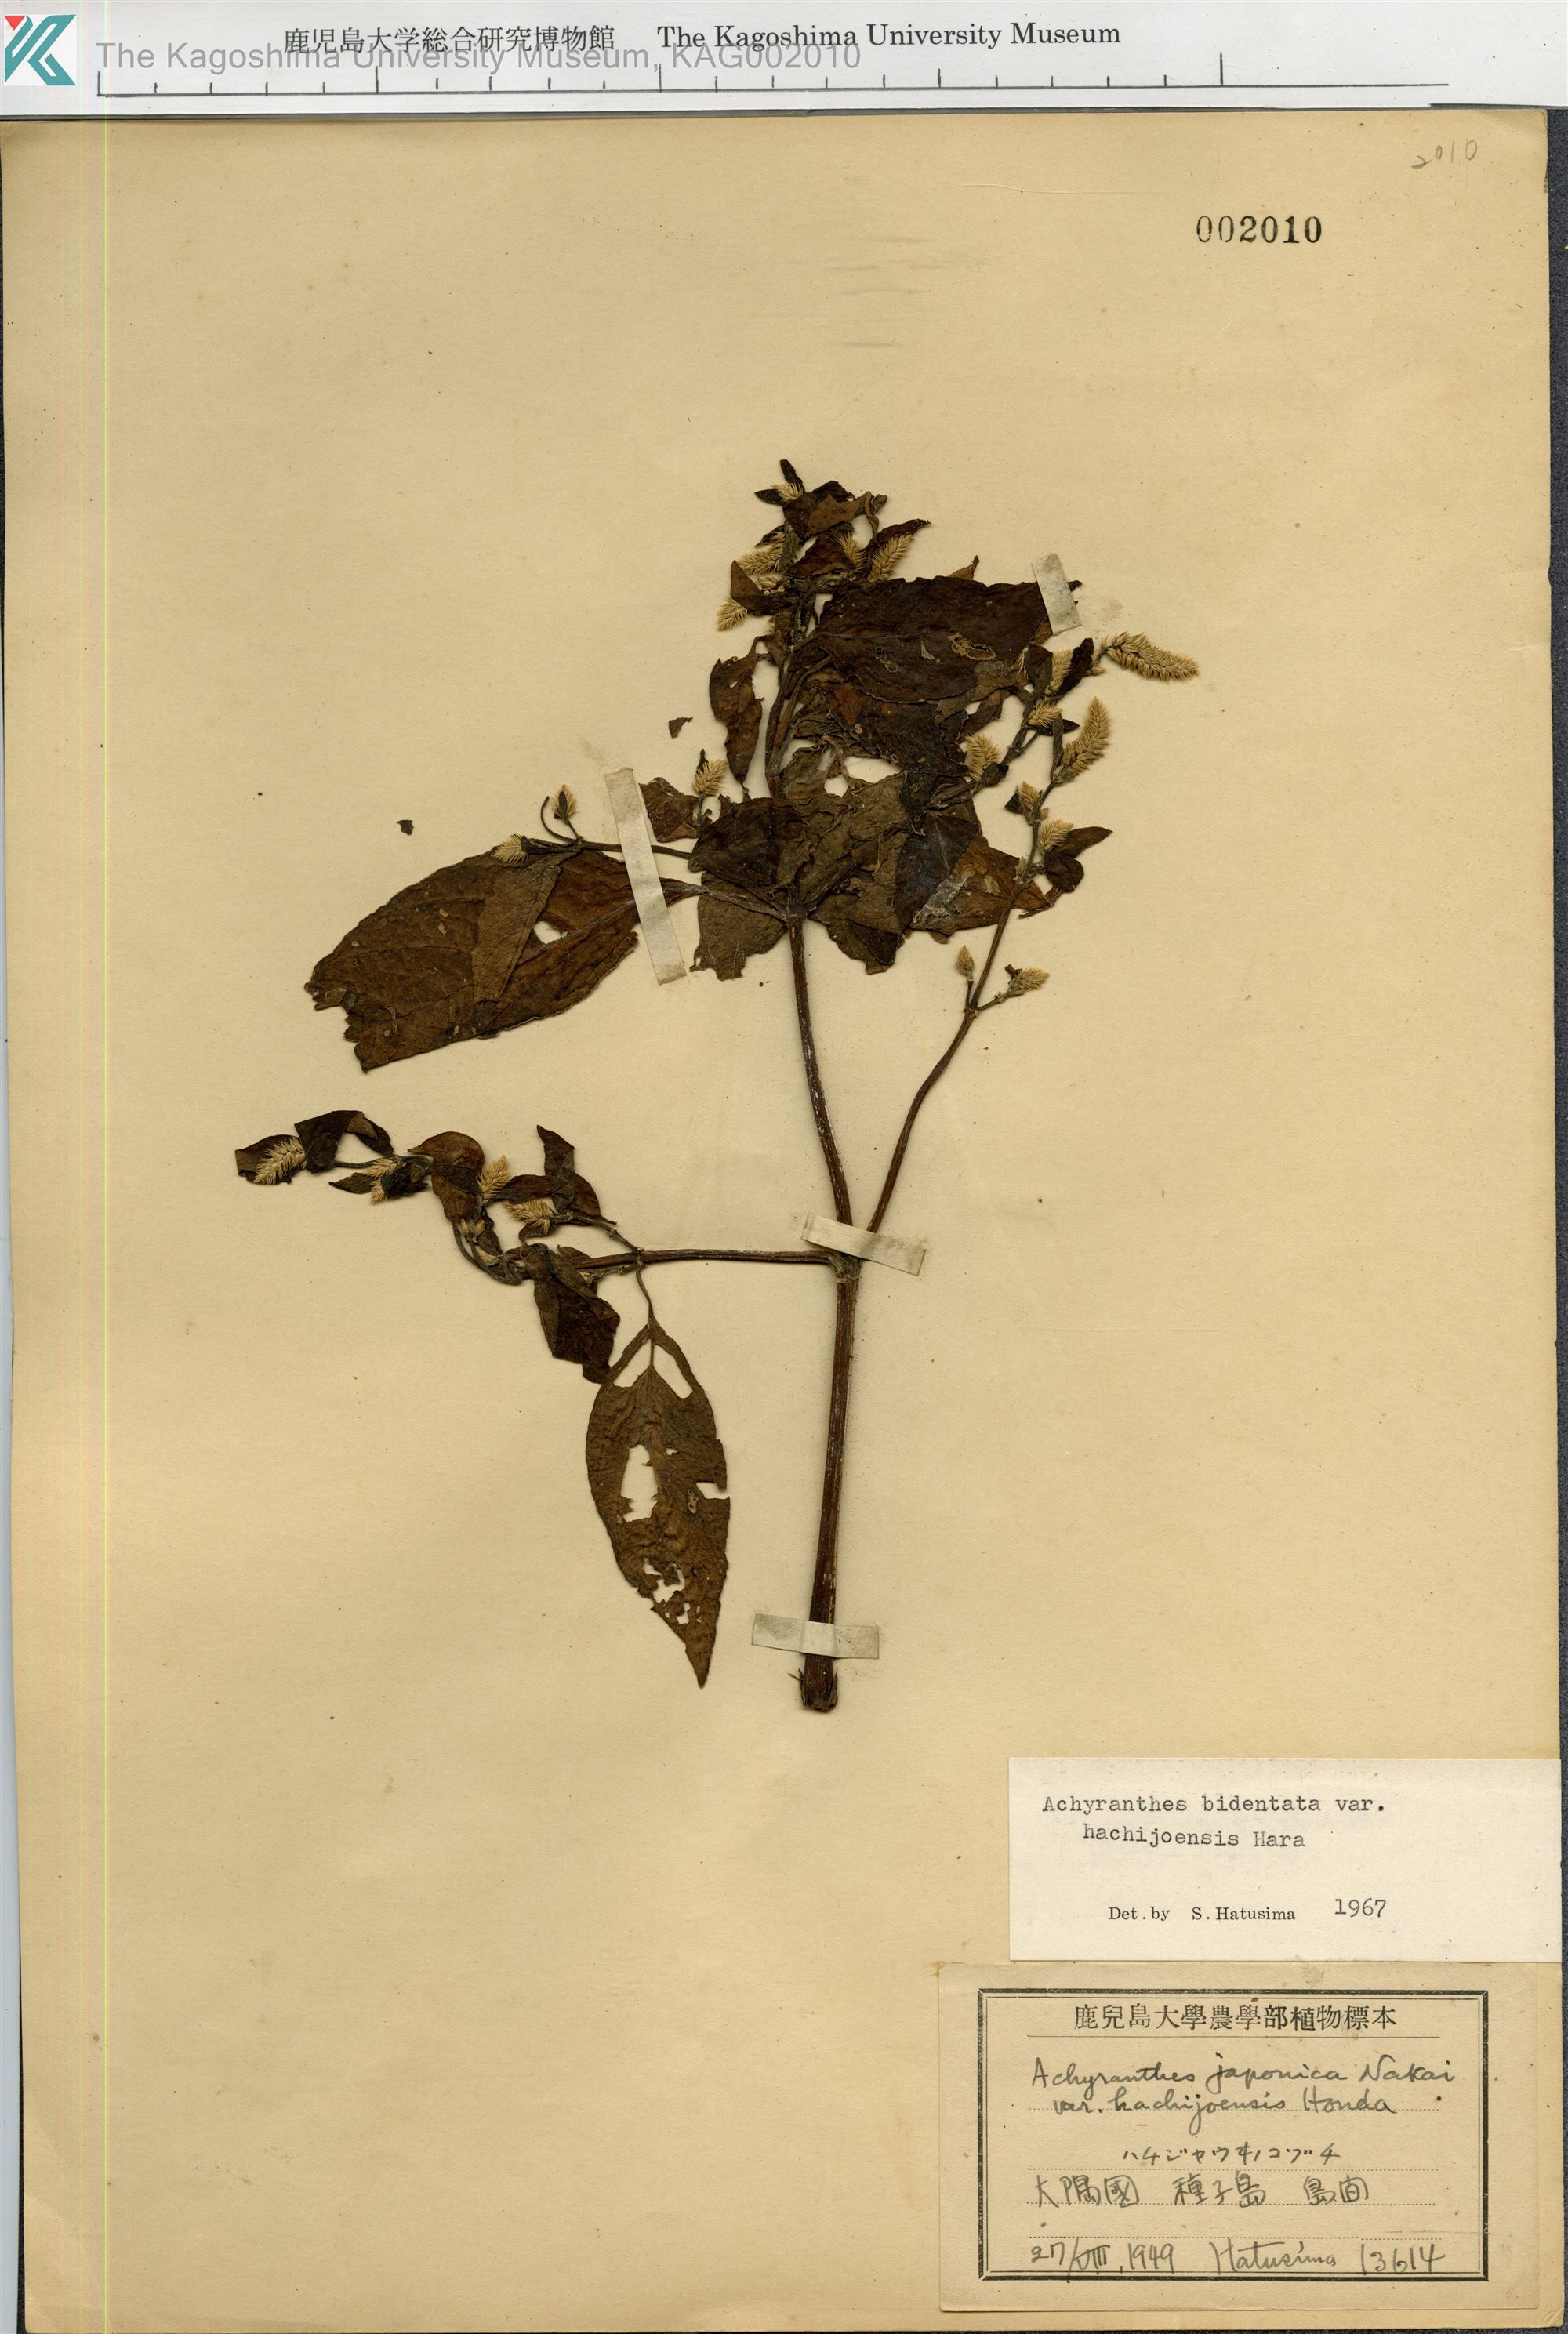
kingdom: Plantae
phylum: Tracheophyta
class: Magnoliopsida
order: Caryophyllales
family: Amaranthaceae
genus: Achyranthes
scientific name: Achyranthes bidentata
